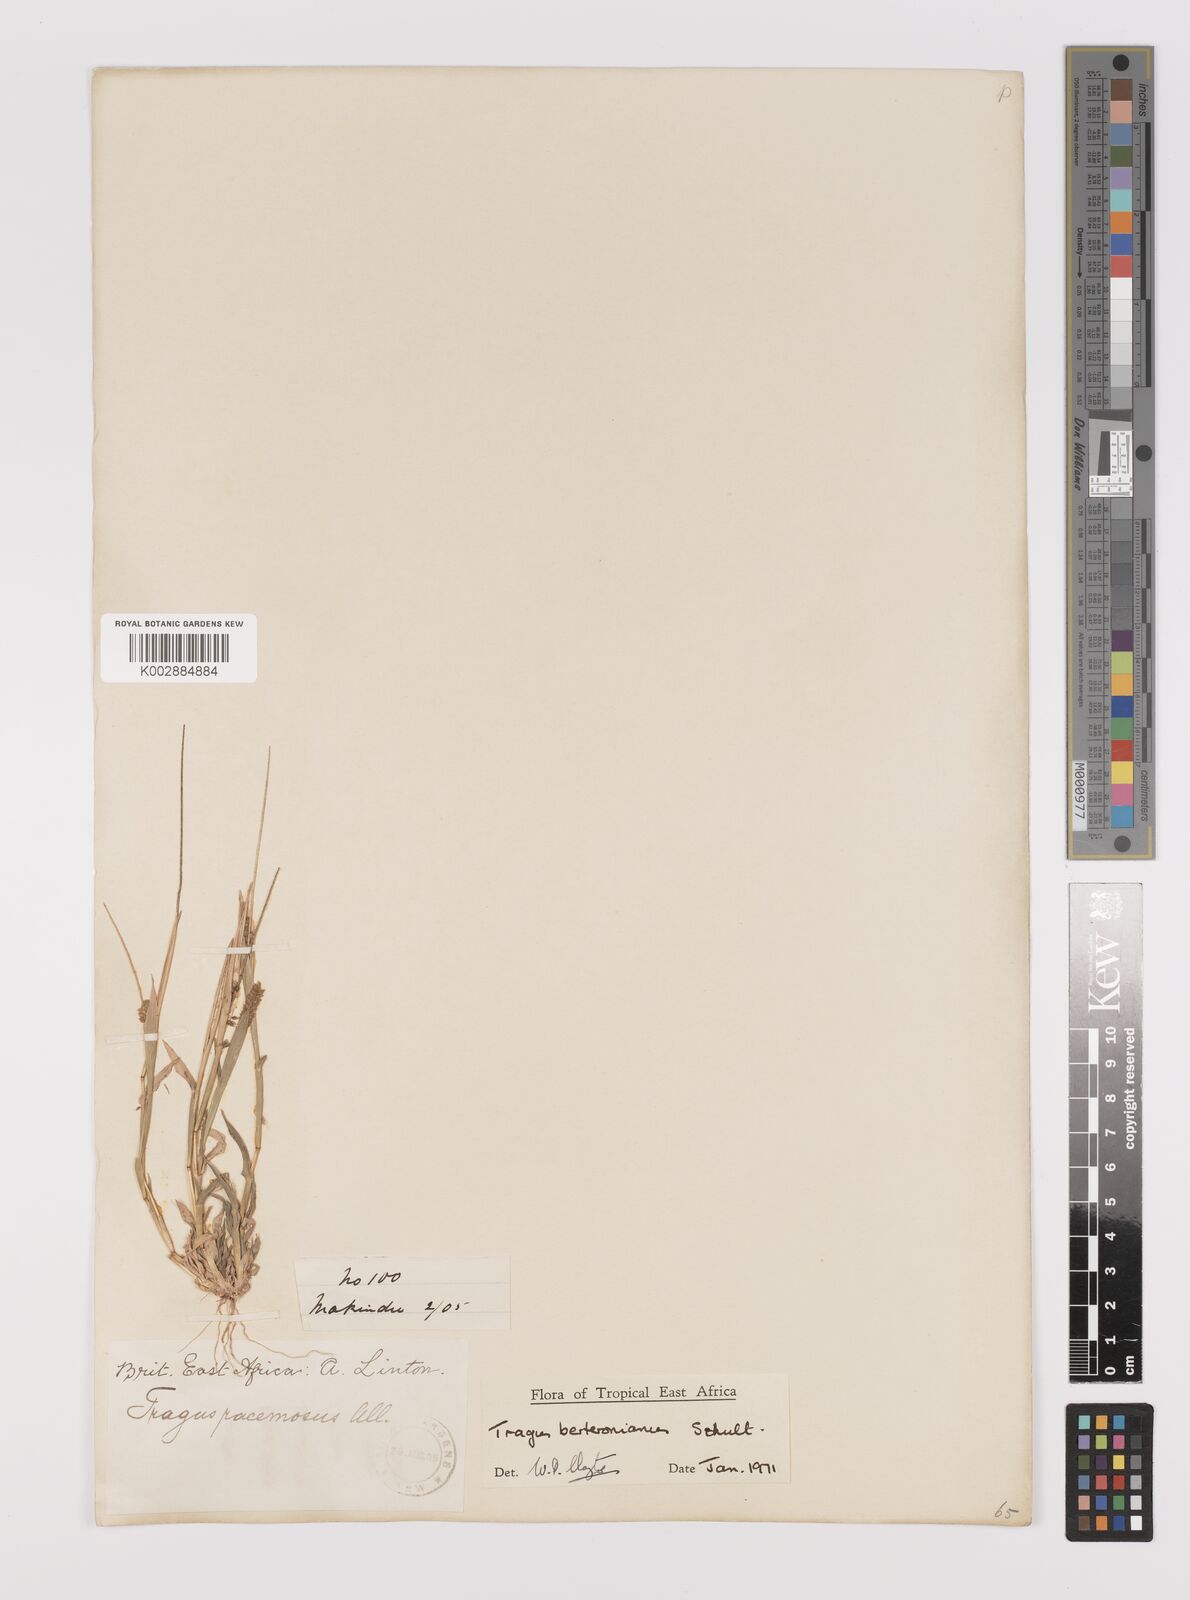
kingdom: Plantae
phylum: Tracheophyta
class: Liliopsida
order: Poales
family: Poaceae
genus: Tragus
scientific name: Tragus berteronianus
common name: African bur-grass
